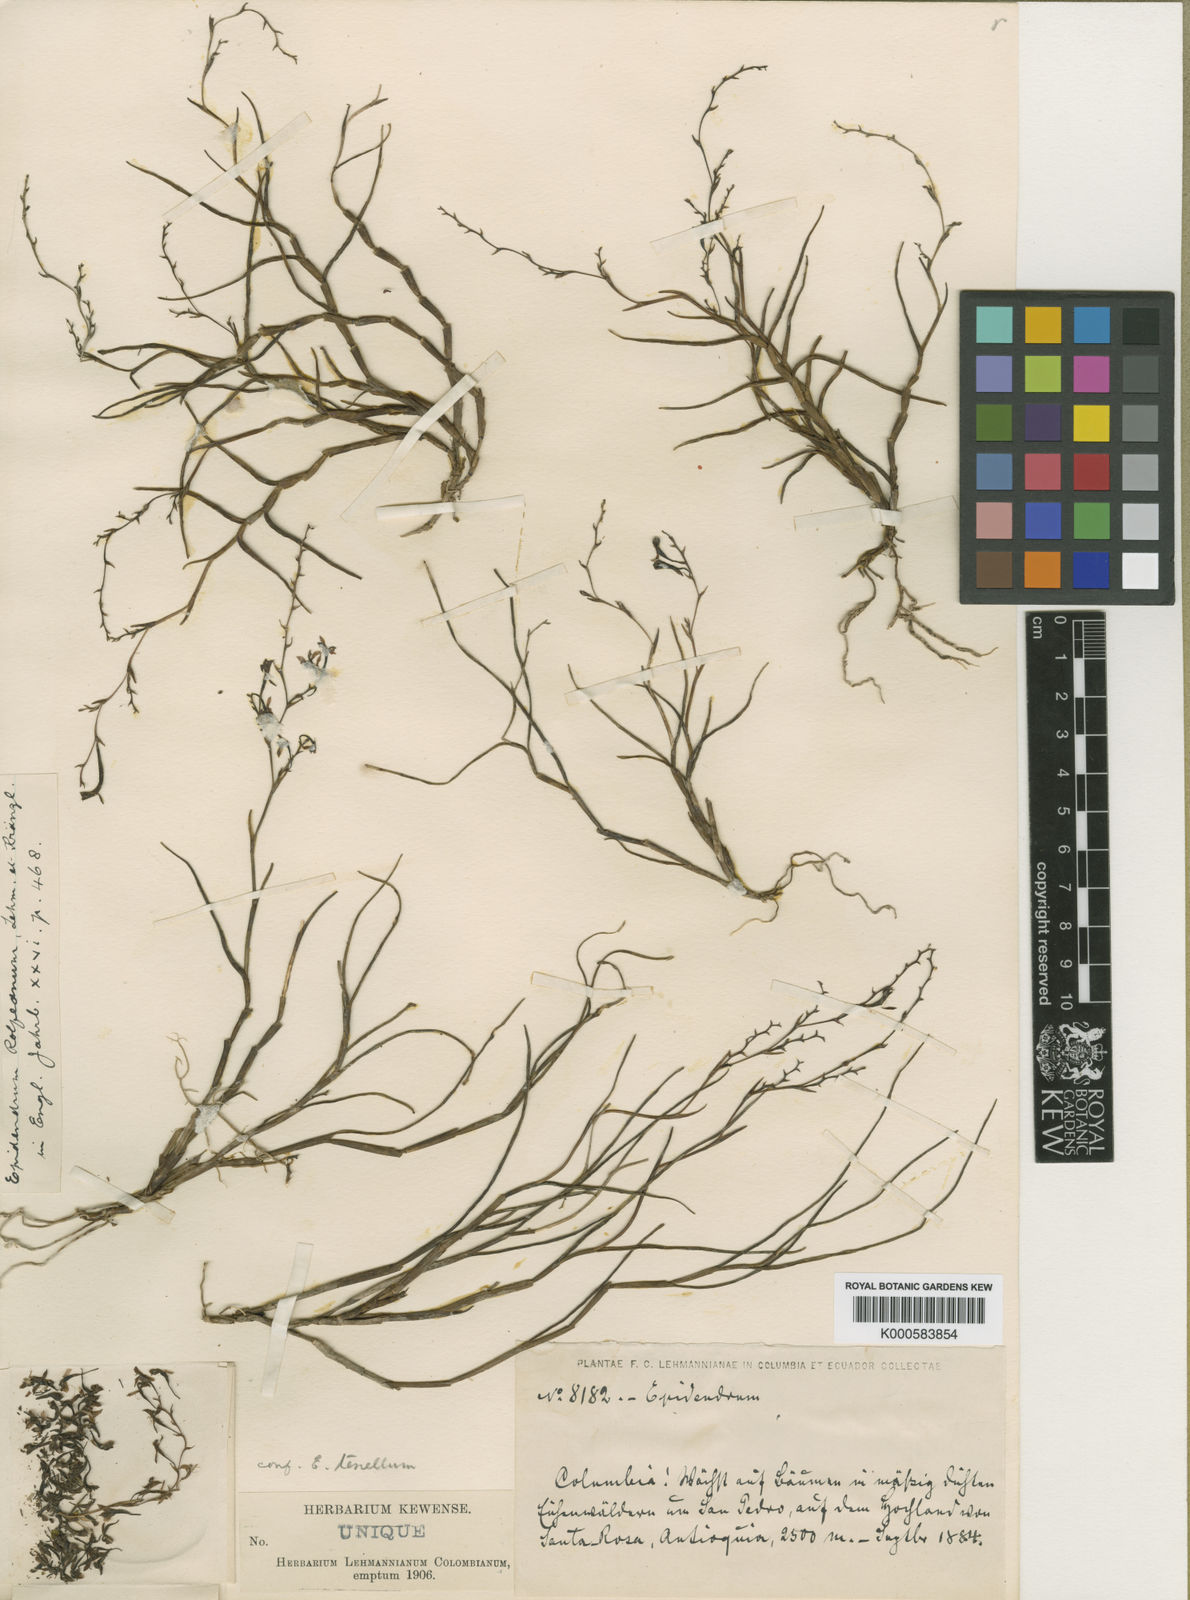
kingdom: Plantae
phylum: Tracheophyta
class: Liliopsida
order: Asparagales
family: Orchidaceae
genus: Epidendrum
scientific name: Epidendrum rolfeanum
